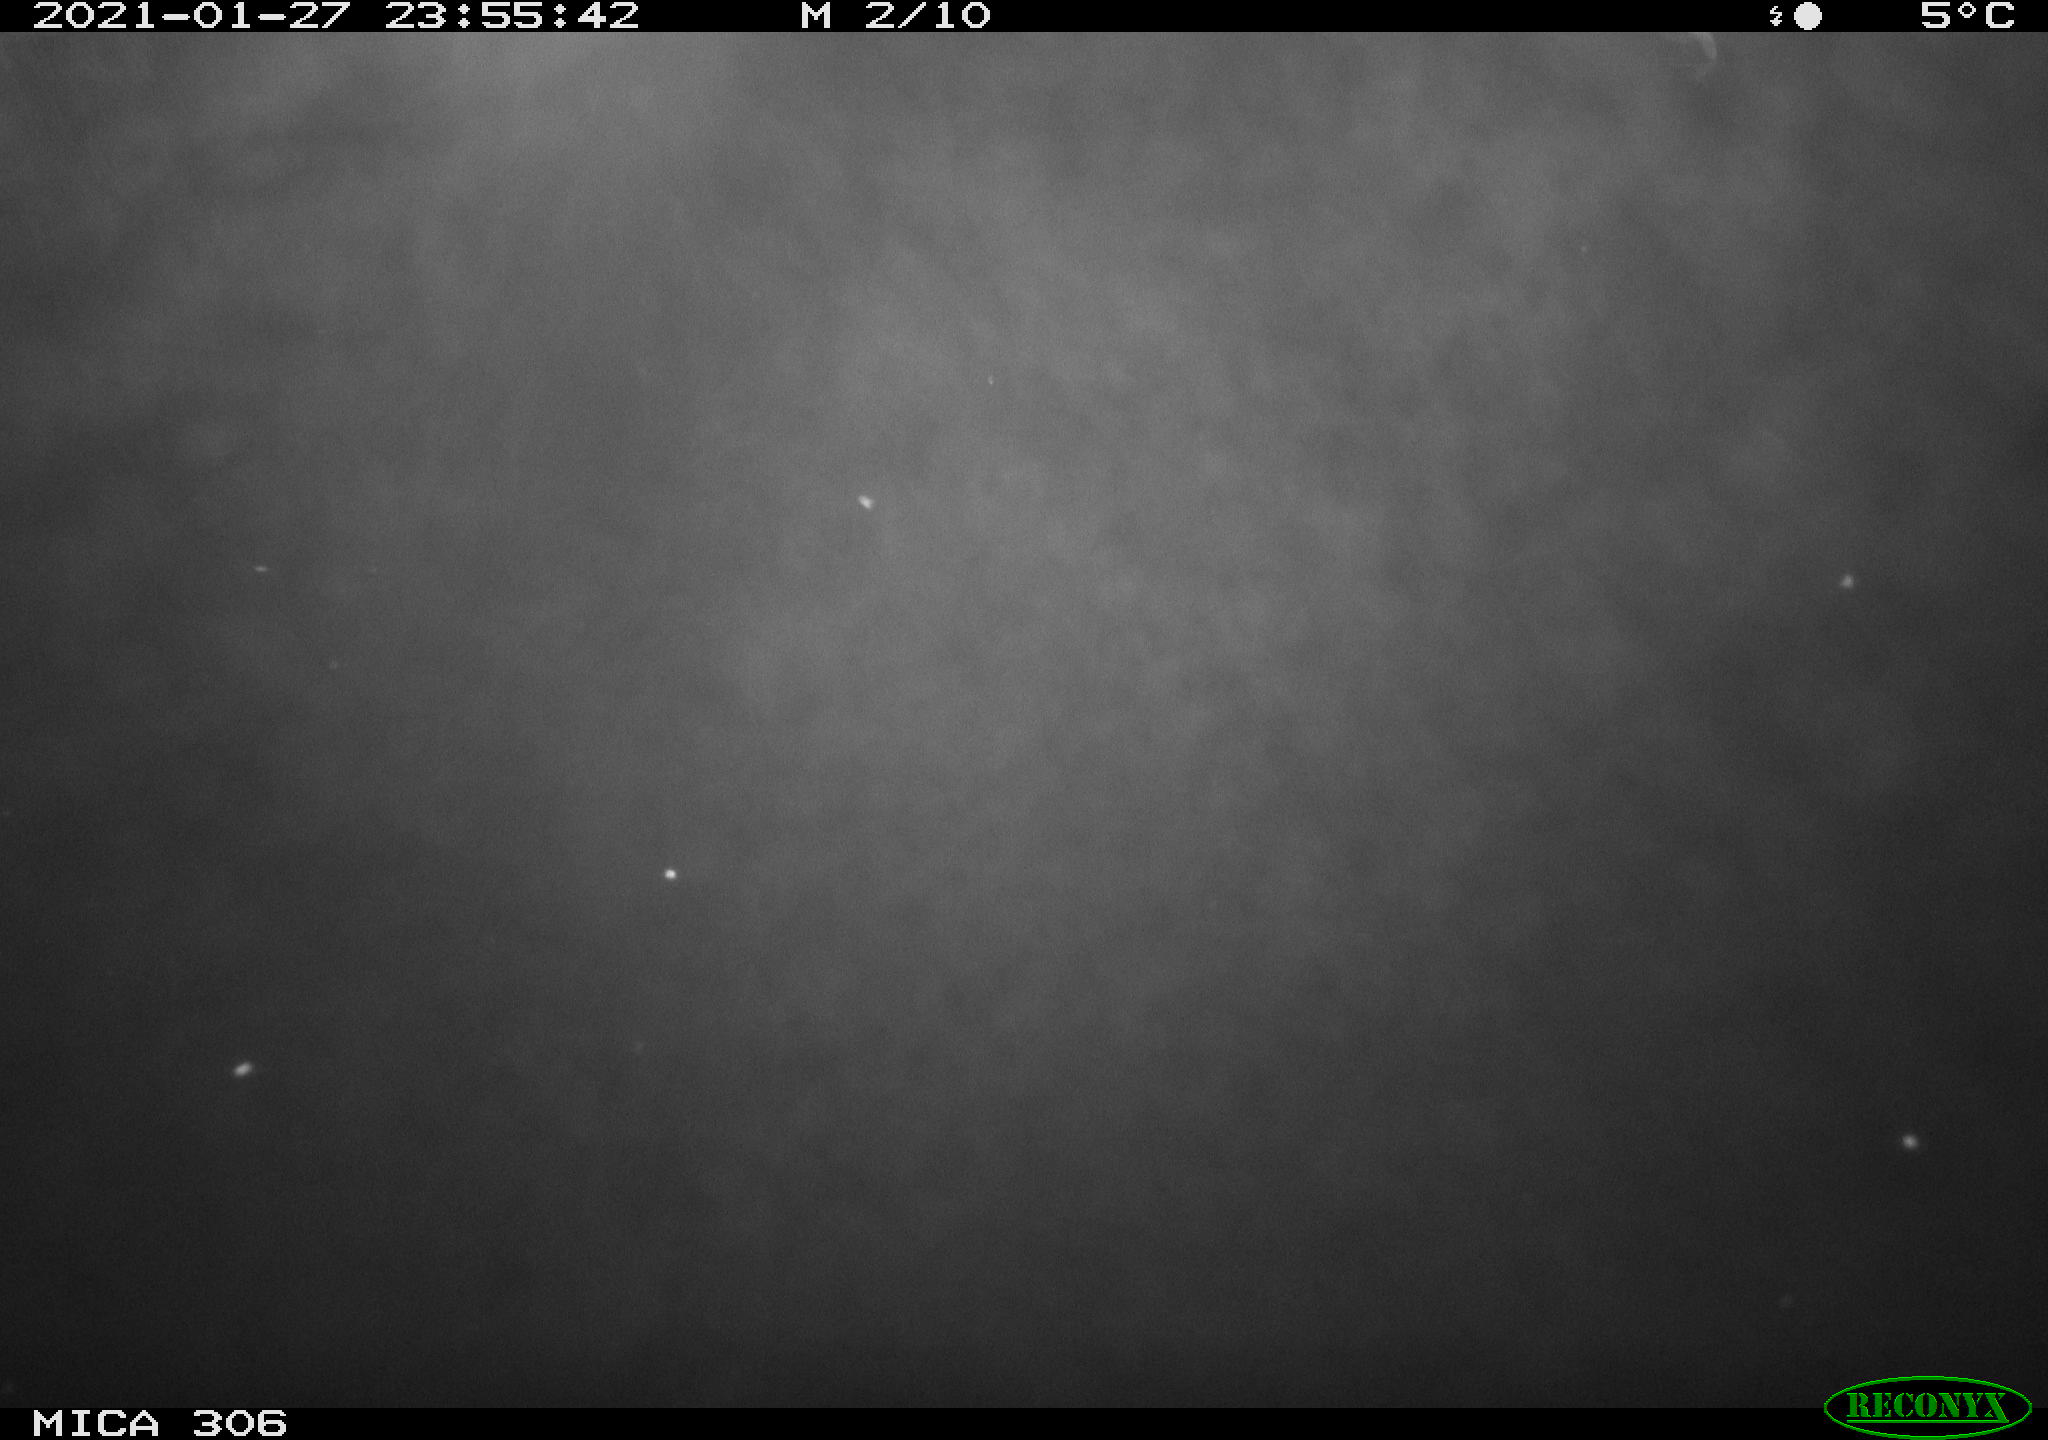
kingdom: Animalia
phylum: Chordata
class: Mammalia
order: Rodentia
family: Cricetidae
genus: Ondatra
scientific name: Ondatra zibethicus
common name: Muskrat
